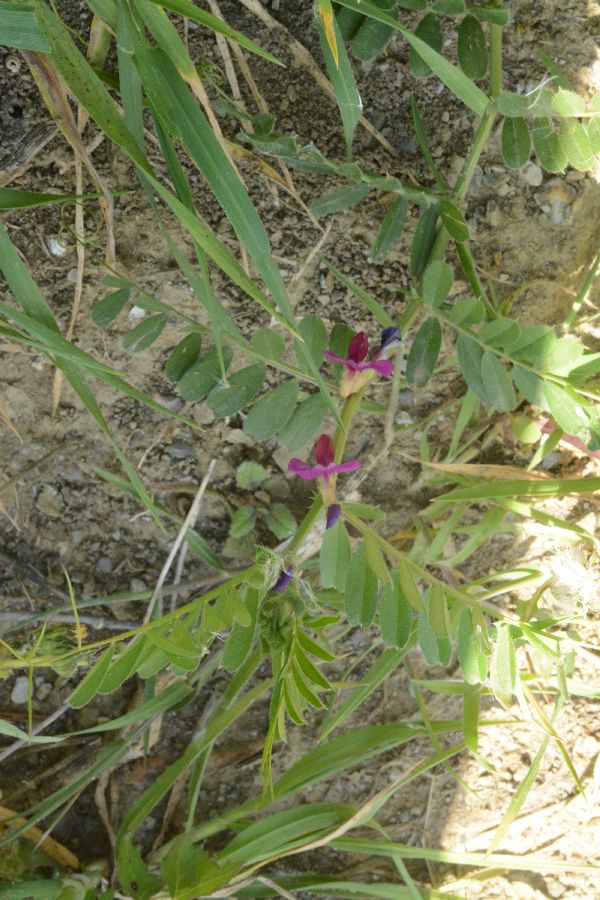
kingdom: Plantae
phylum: Tracheophyta
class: Magnoliopsida
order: Fabales
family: Fabaceae
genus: Vicia
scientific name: Vicia sativa
